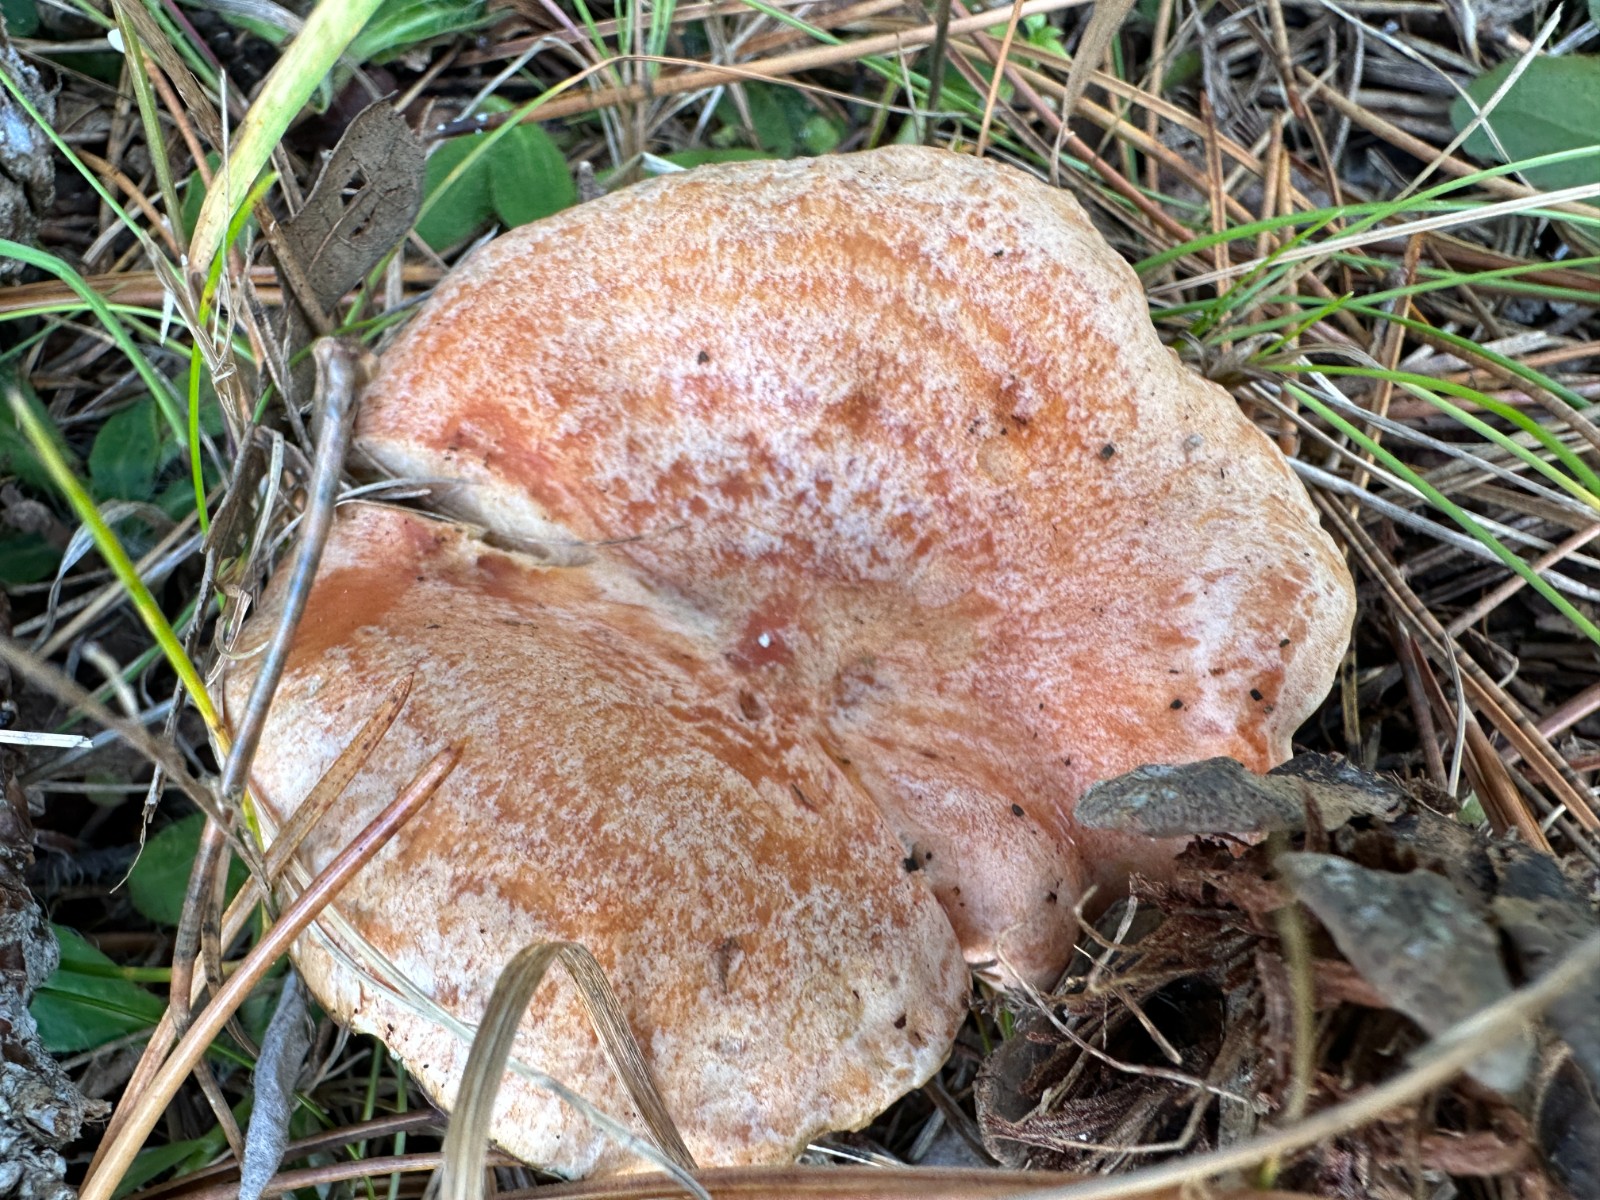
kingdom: Fungi
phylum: Basidiomycota
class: Agaricomycetes
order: Russulales
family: Russulaceae
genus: Lactarius
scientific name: Lactarius deliciosus
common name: velsmagende mælkehat
